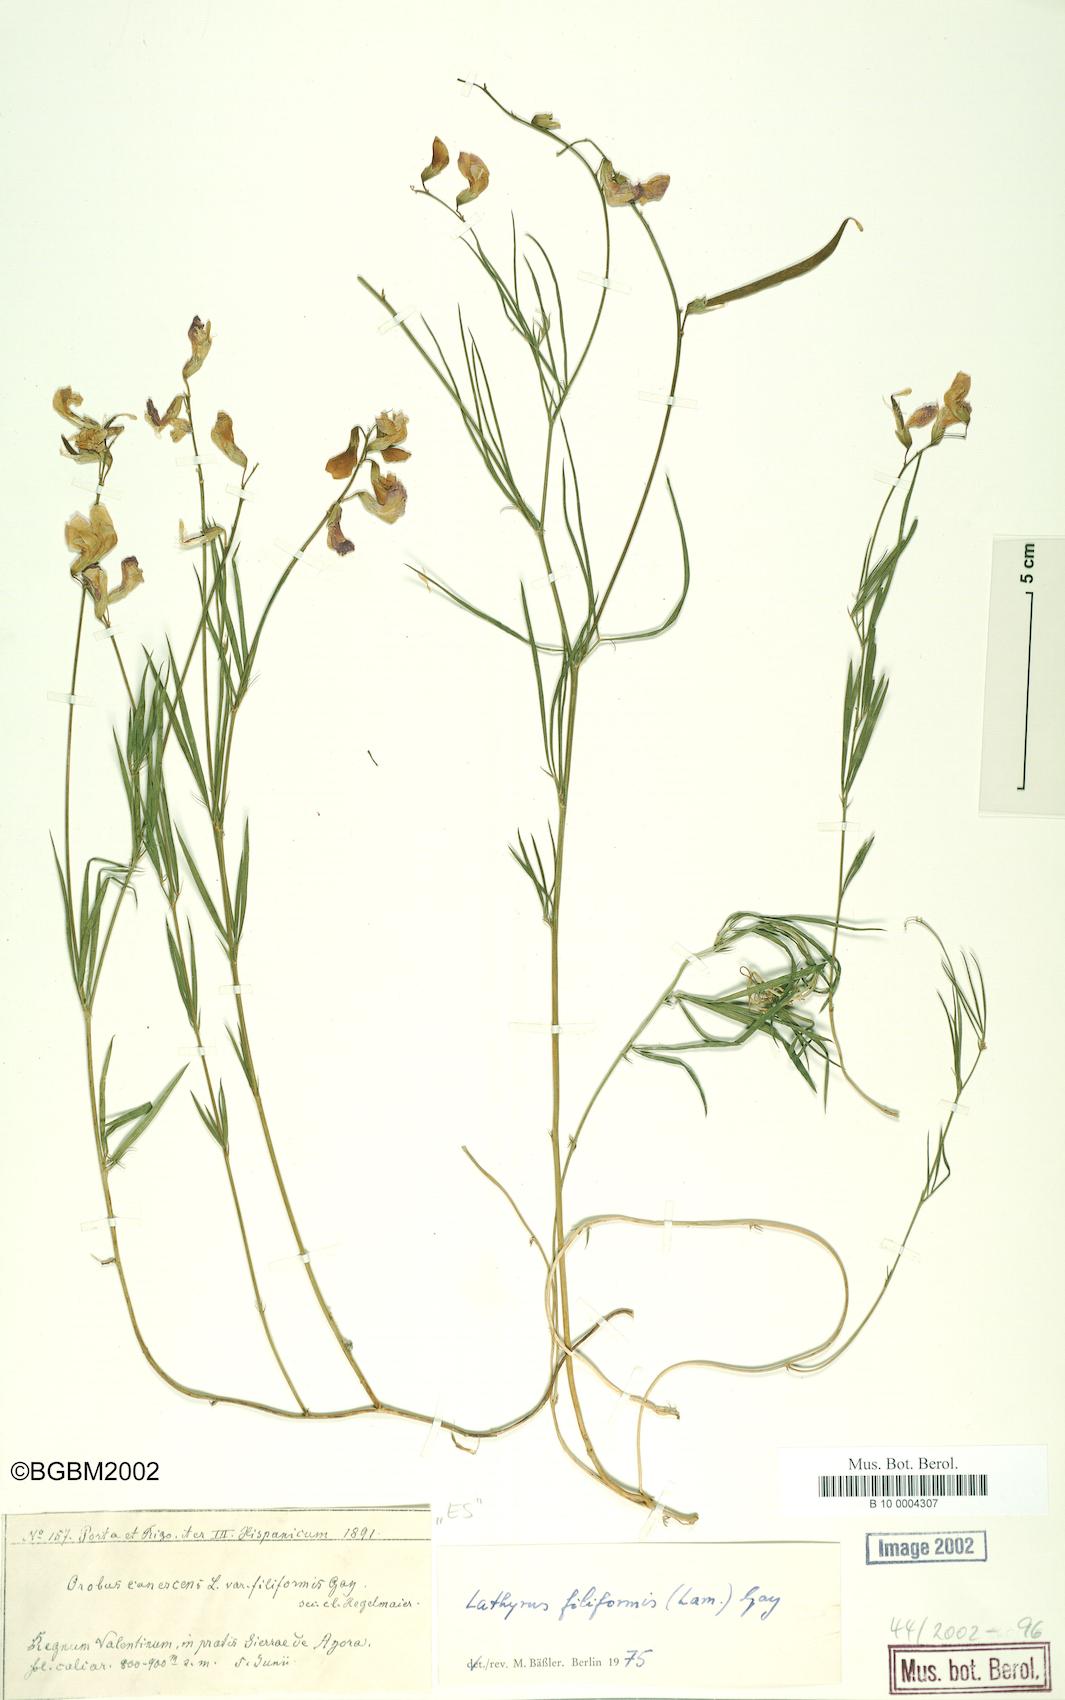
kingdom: Plantae
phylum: Tracheophyta
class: Magnoliopsida
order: Fabales
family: Fabaceae
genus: Lathyrus
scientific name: Lathyrus filiformis
